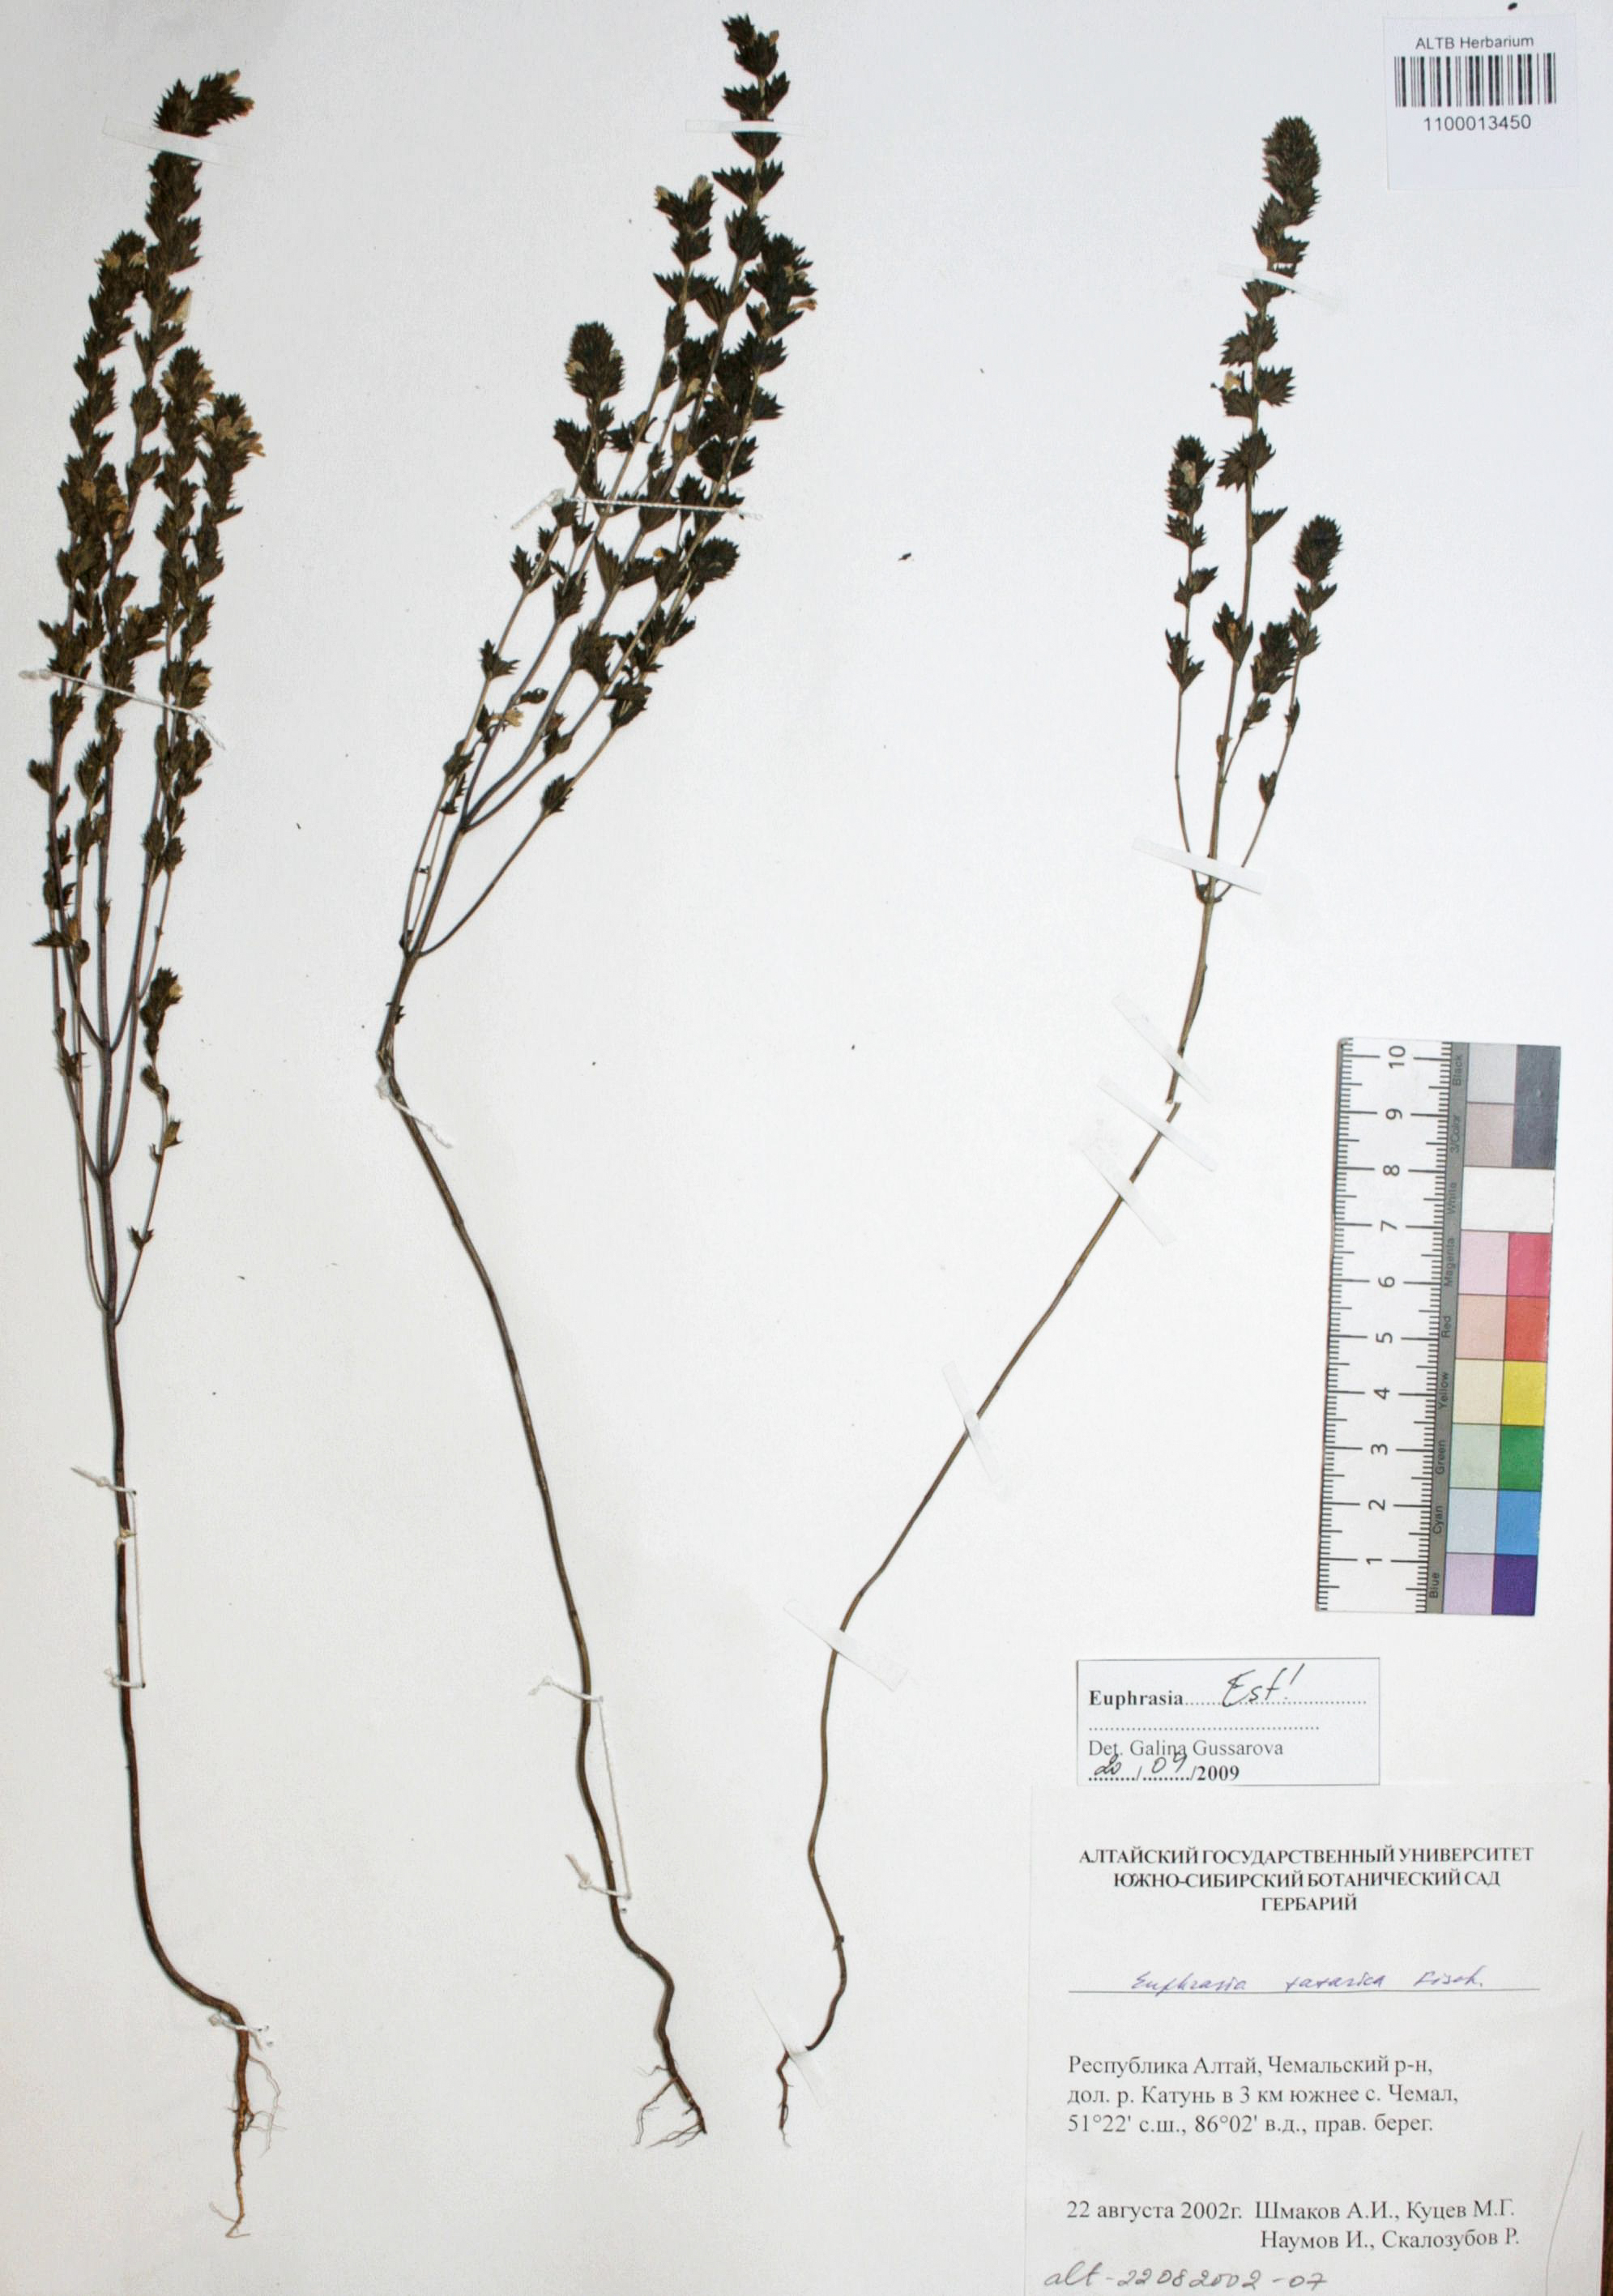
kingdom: Plantae
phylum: Tracheophyta
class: Magnoliopsida
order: Lamiales
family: Orobanchaceae
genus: Euphrasia
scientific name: Euphrasia pectinata
